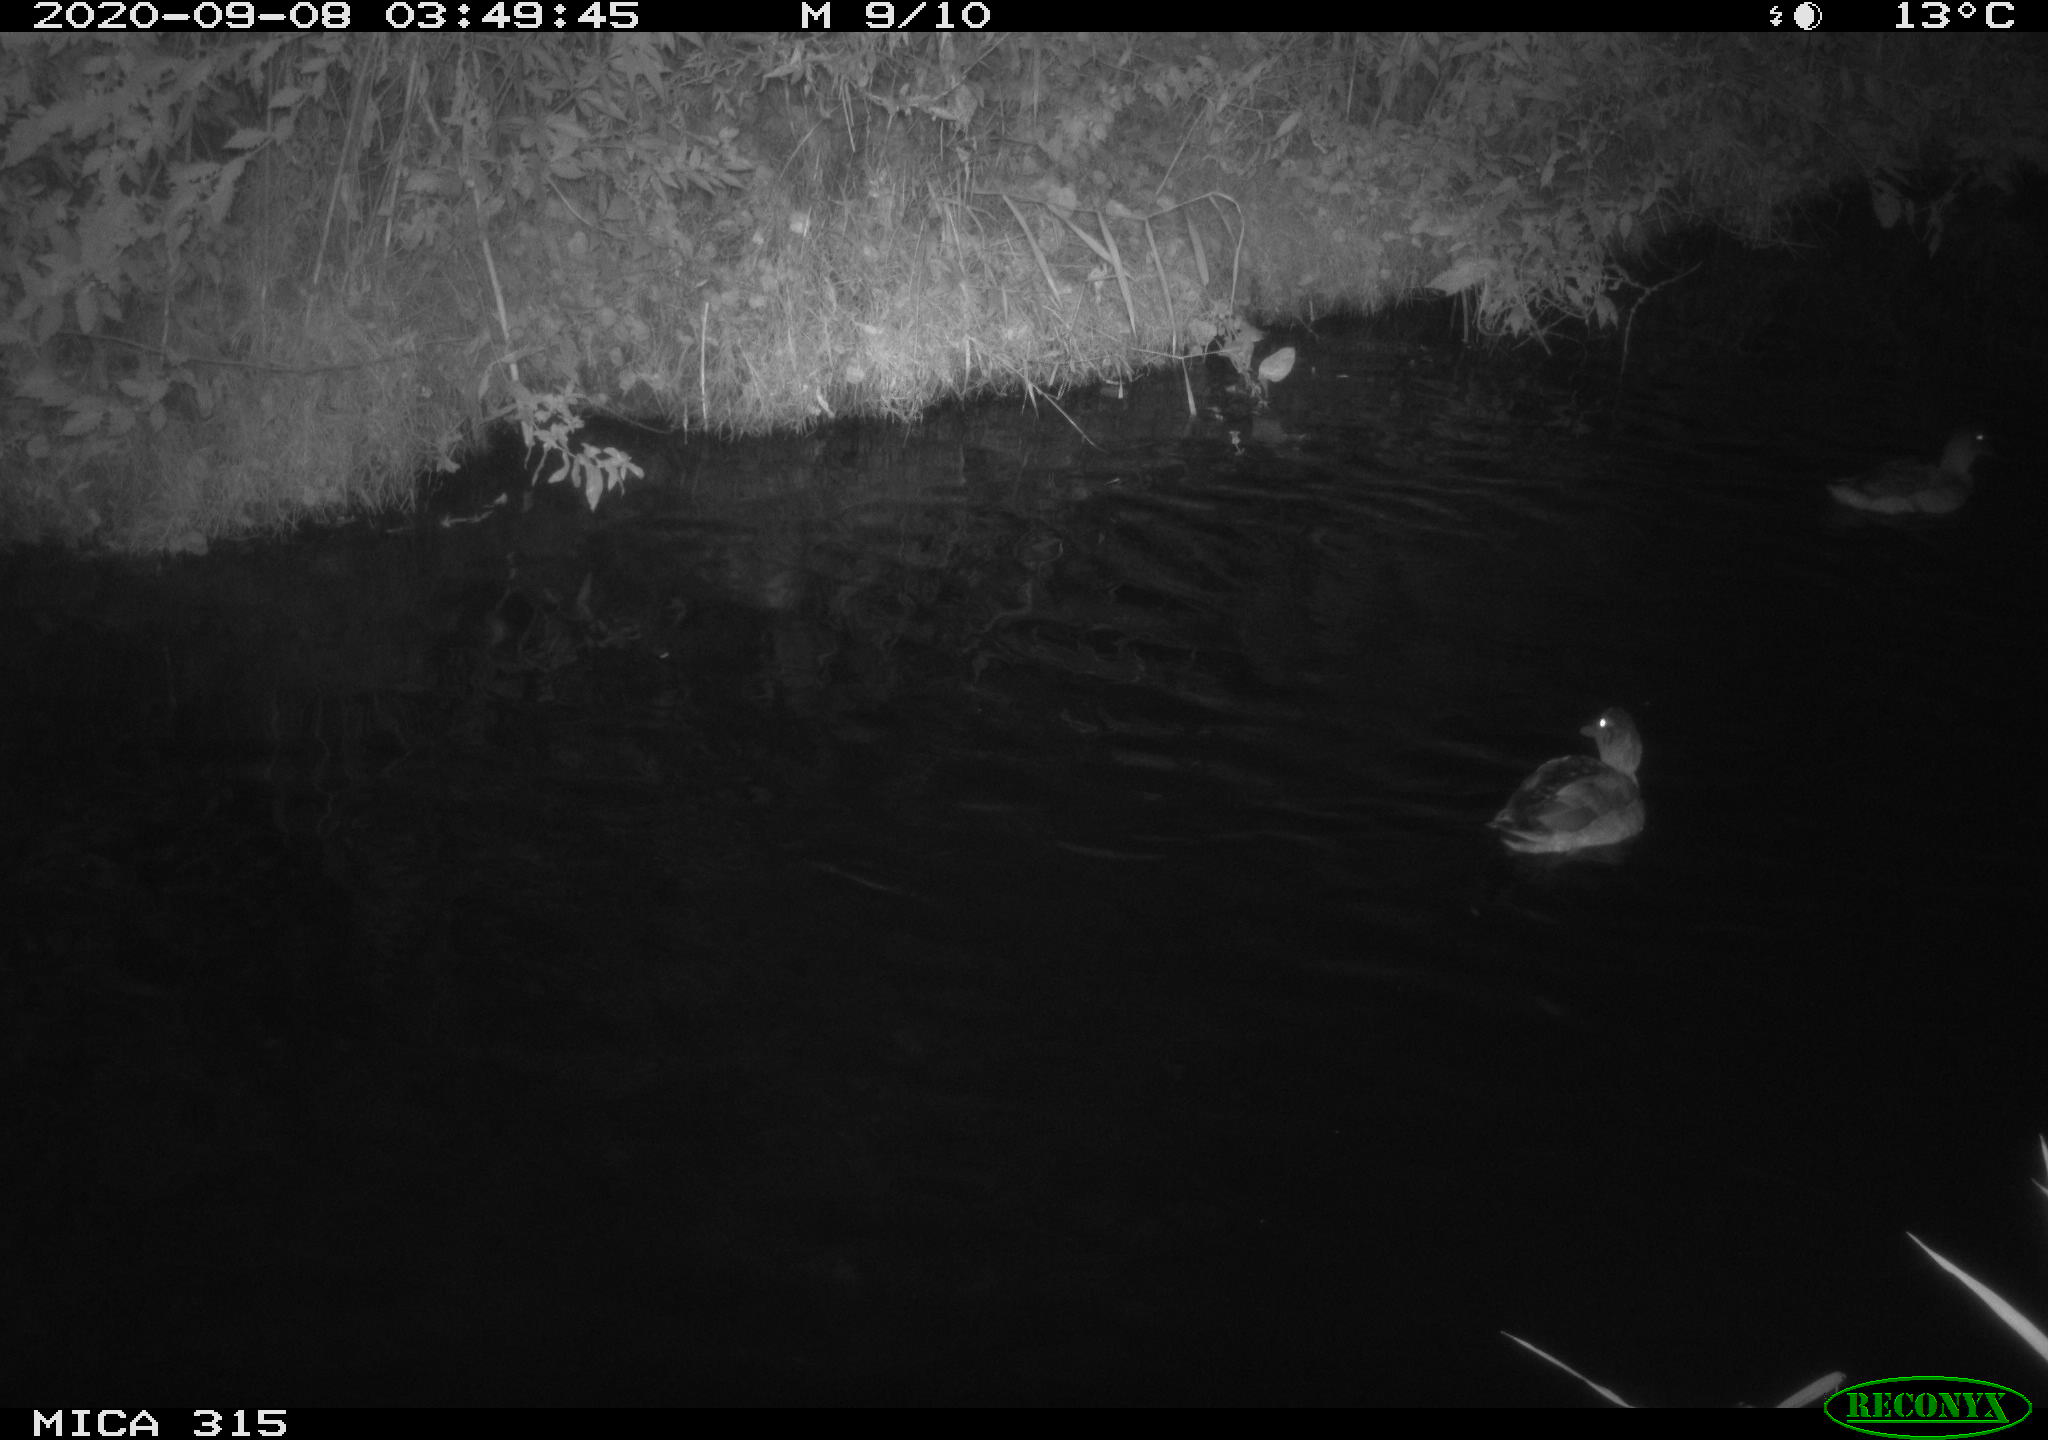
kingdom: Animalia
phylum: Chordata
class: Aves
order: Anseriformes
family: Anatidae
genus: Anas
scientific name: Anas platyrhynchos
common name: Mallard
